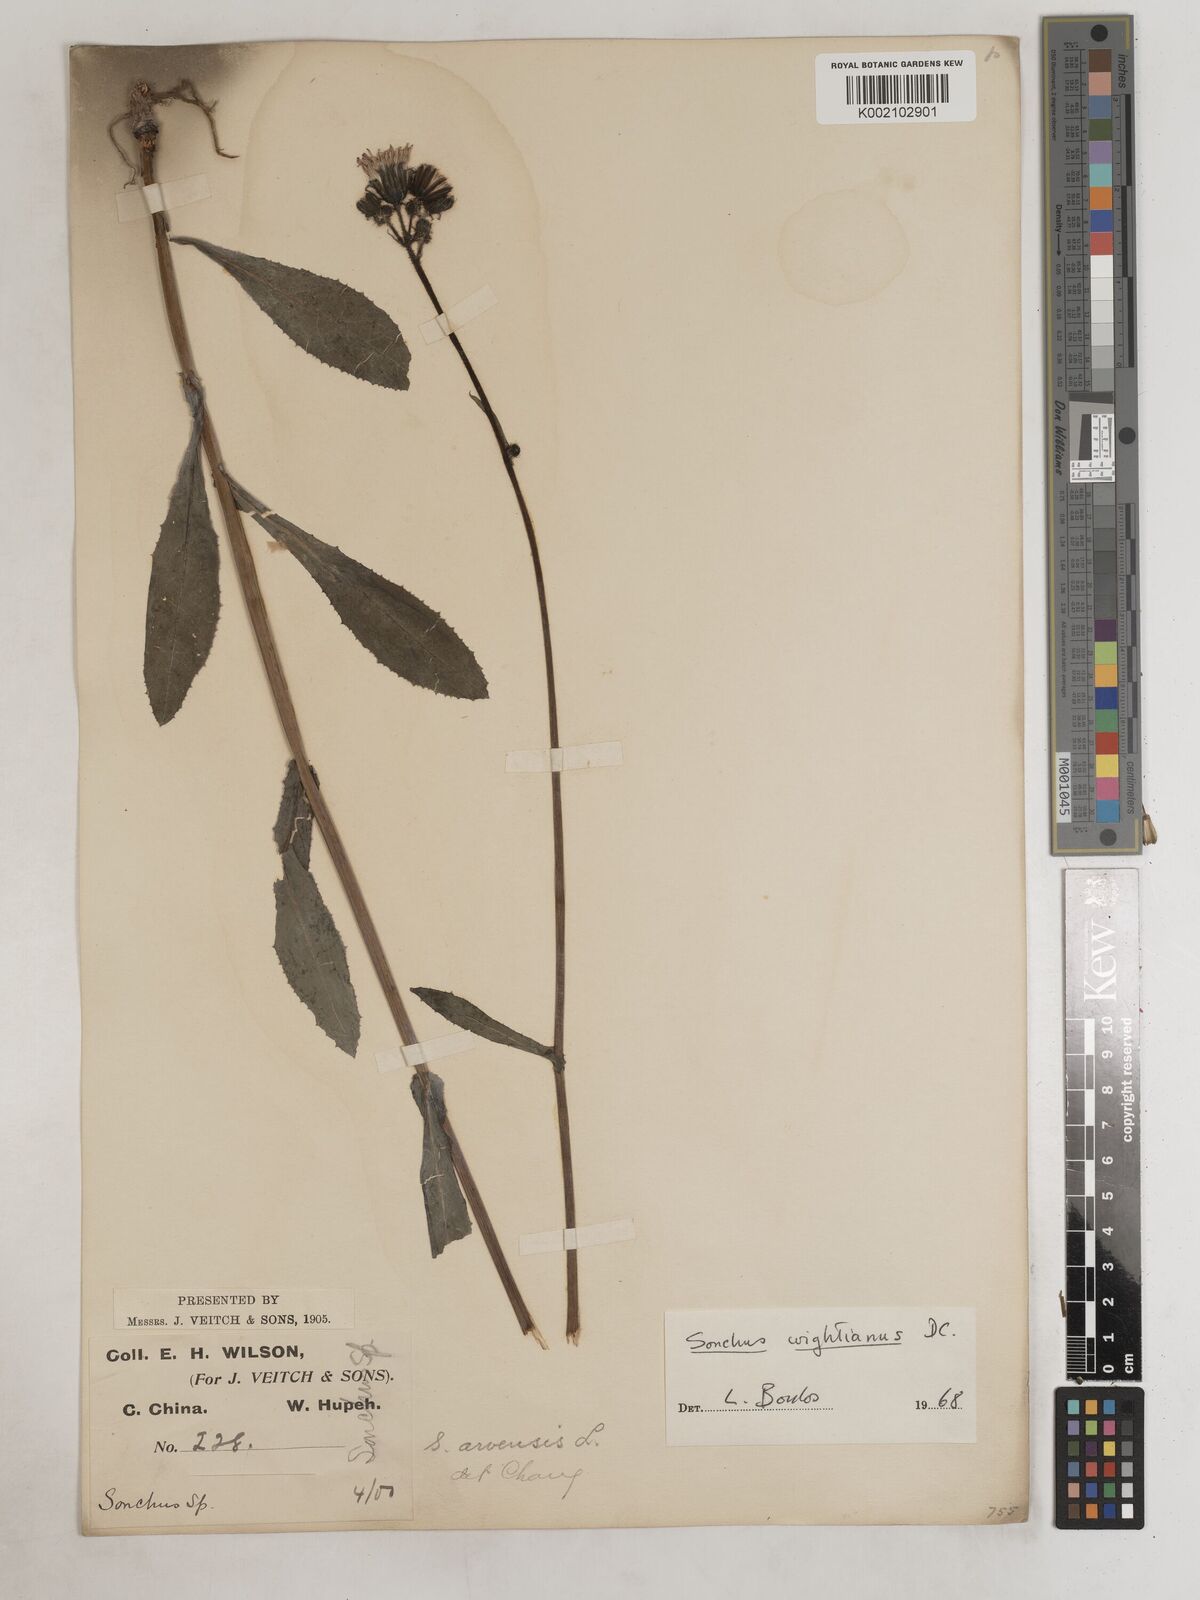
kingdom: Plantae
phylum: Tracheophyta
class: Magnoliopsida
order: Asterales
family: Asteraceae
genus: Sonchus
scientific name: Sonchus wightianus
